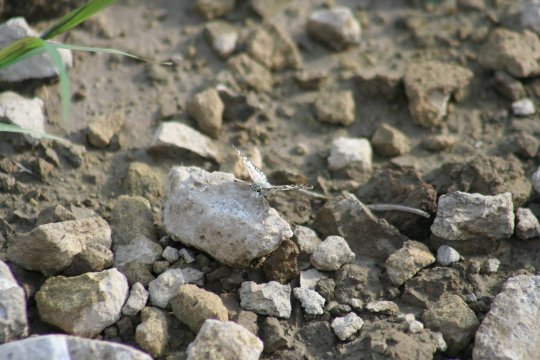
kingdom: Animalia
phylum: Arthropoda
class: Insecta
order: Lepidoptera
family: Hesperiidae
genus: Pyrgus
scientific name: Pyrgus communis
